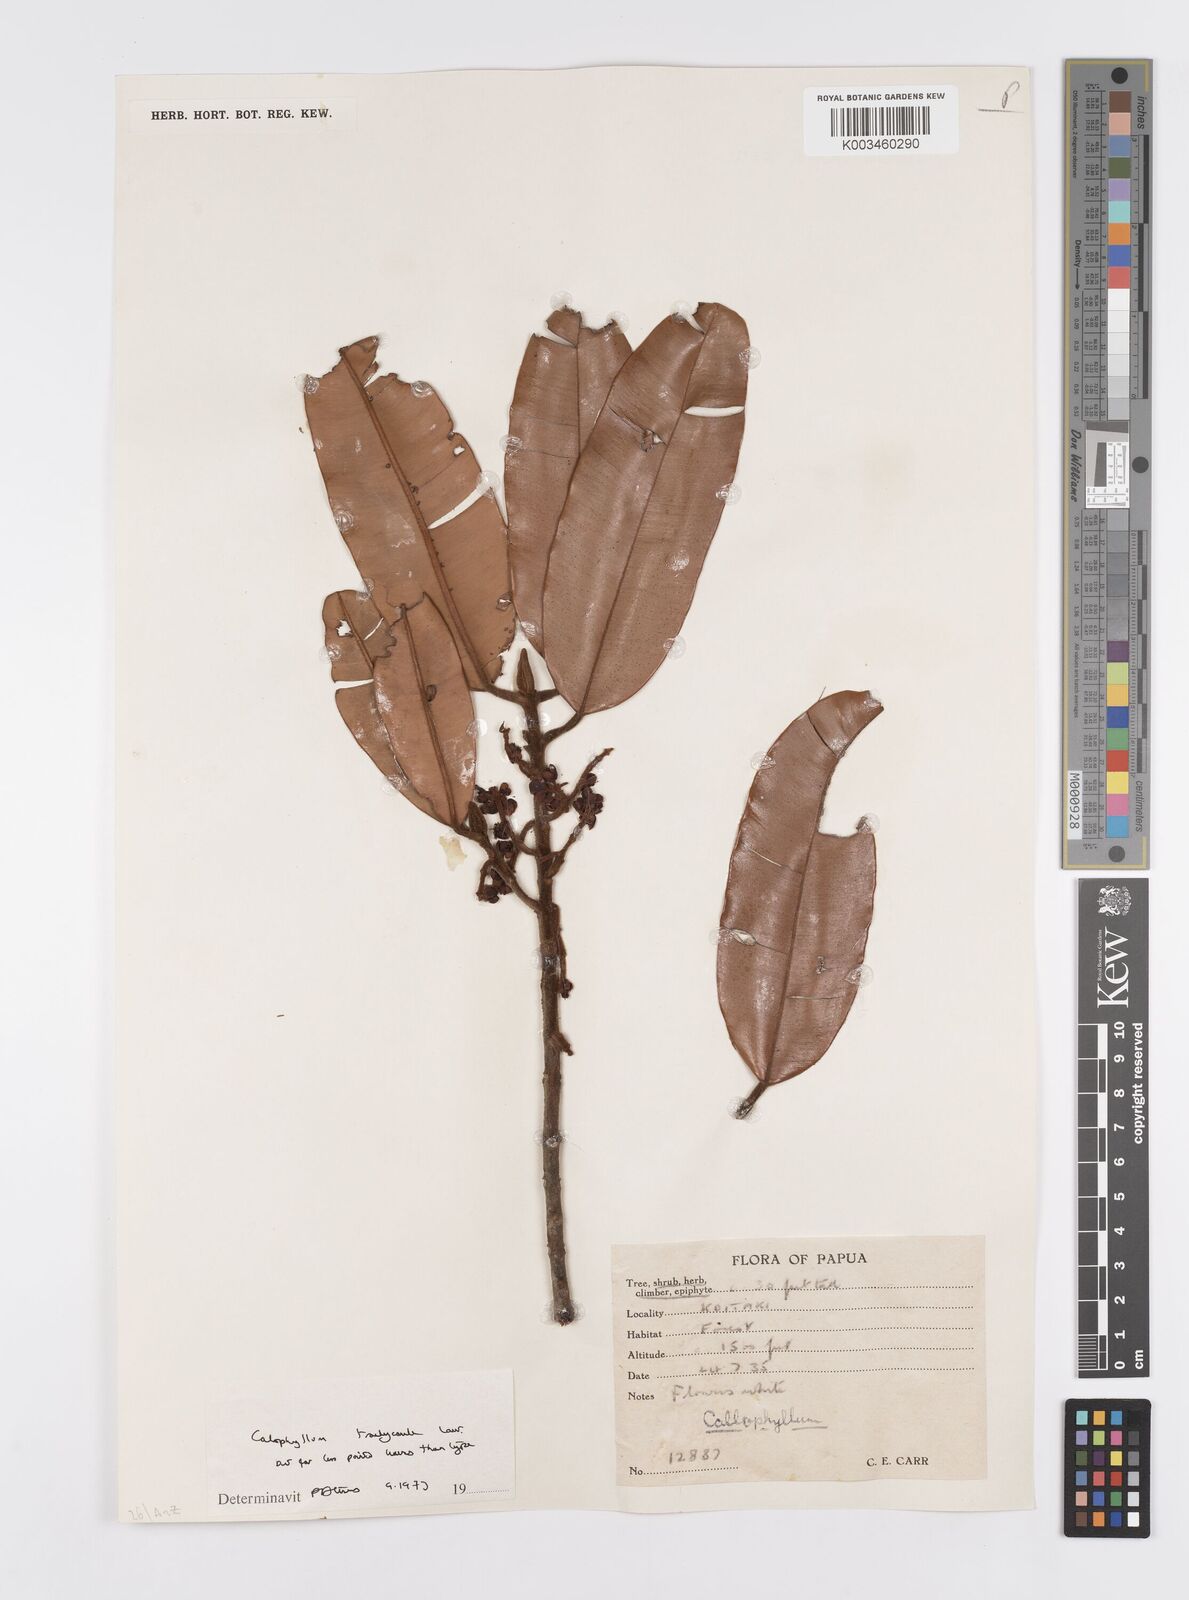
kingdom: Plantae
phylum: Tracheophyta
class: Magnoliopsida
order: Malpighiales
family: Calophyllaceae
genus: Calophyllum
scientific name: Calophyllum trachycaule
